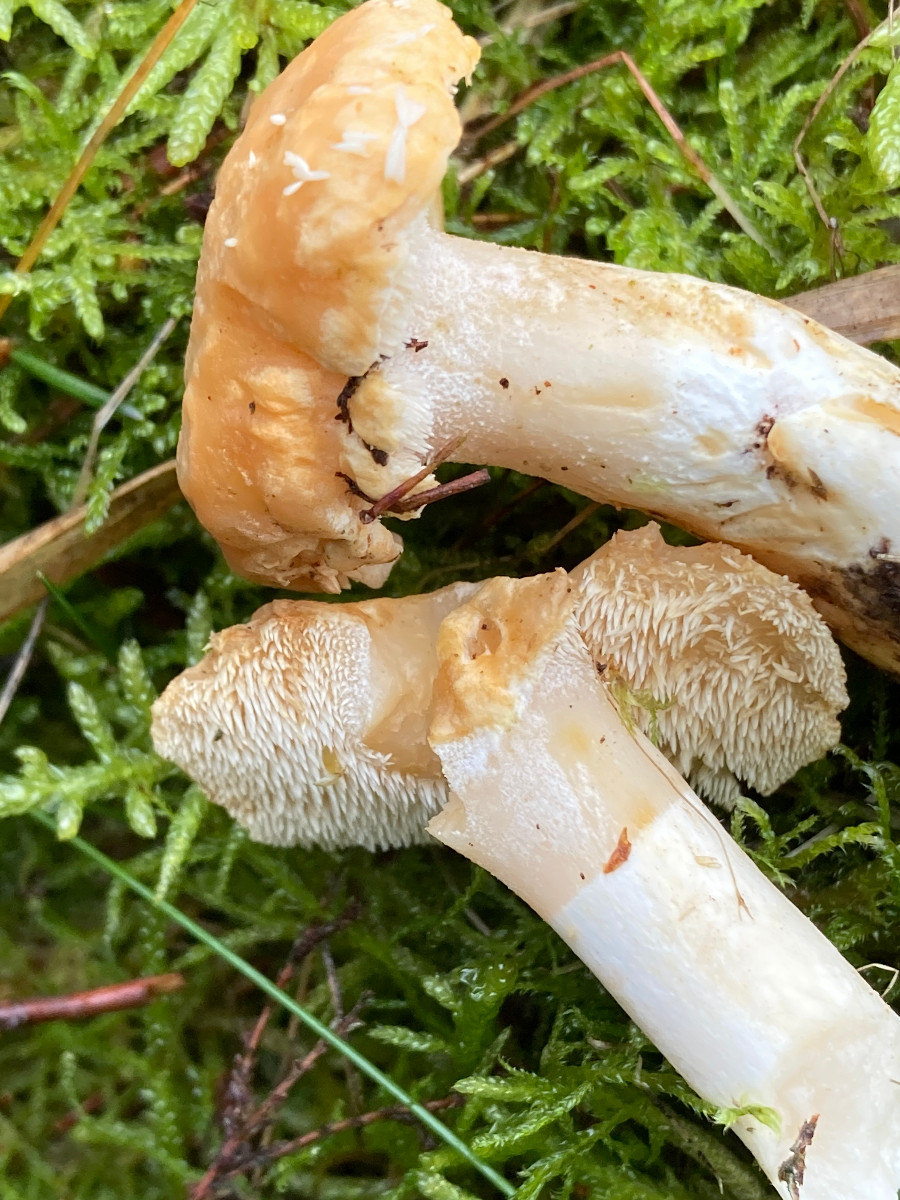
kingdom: Fungi
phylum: Basidiomycota
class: Agaricomycetes
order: Cantharellales
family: Hydnaceae
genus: Hydnum
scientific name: Hydnum
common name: pigsvamp
